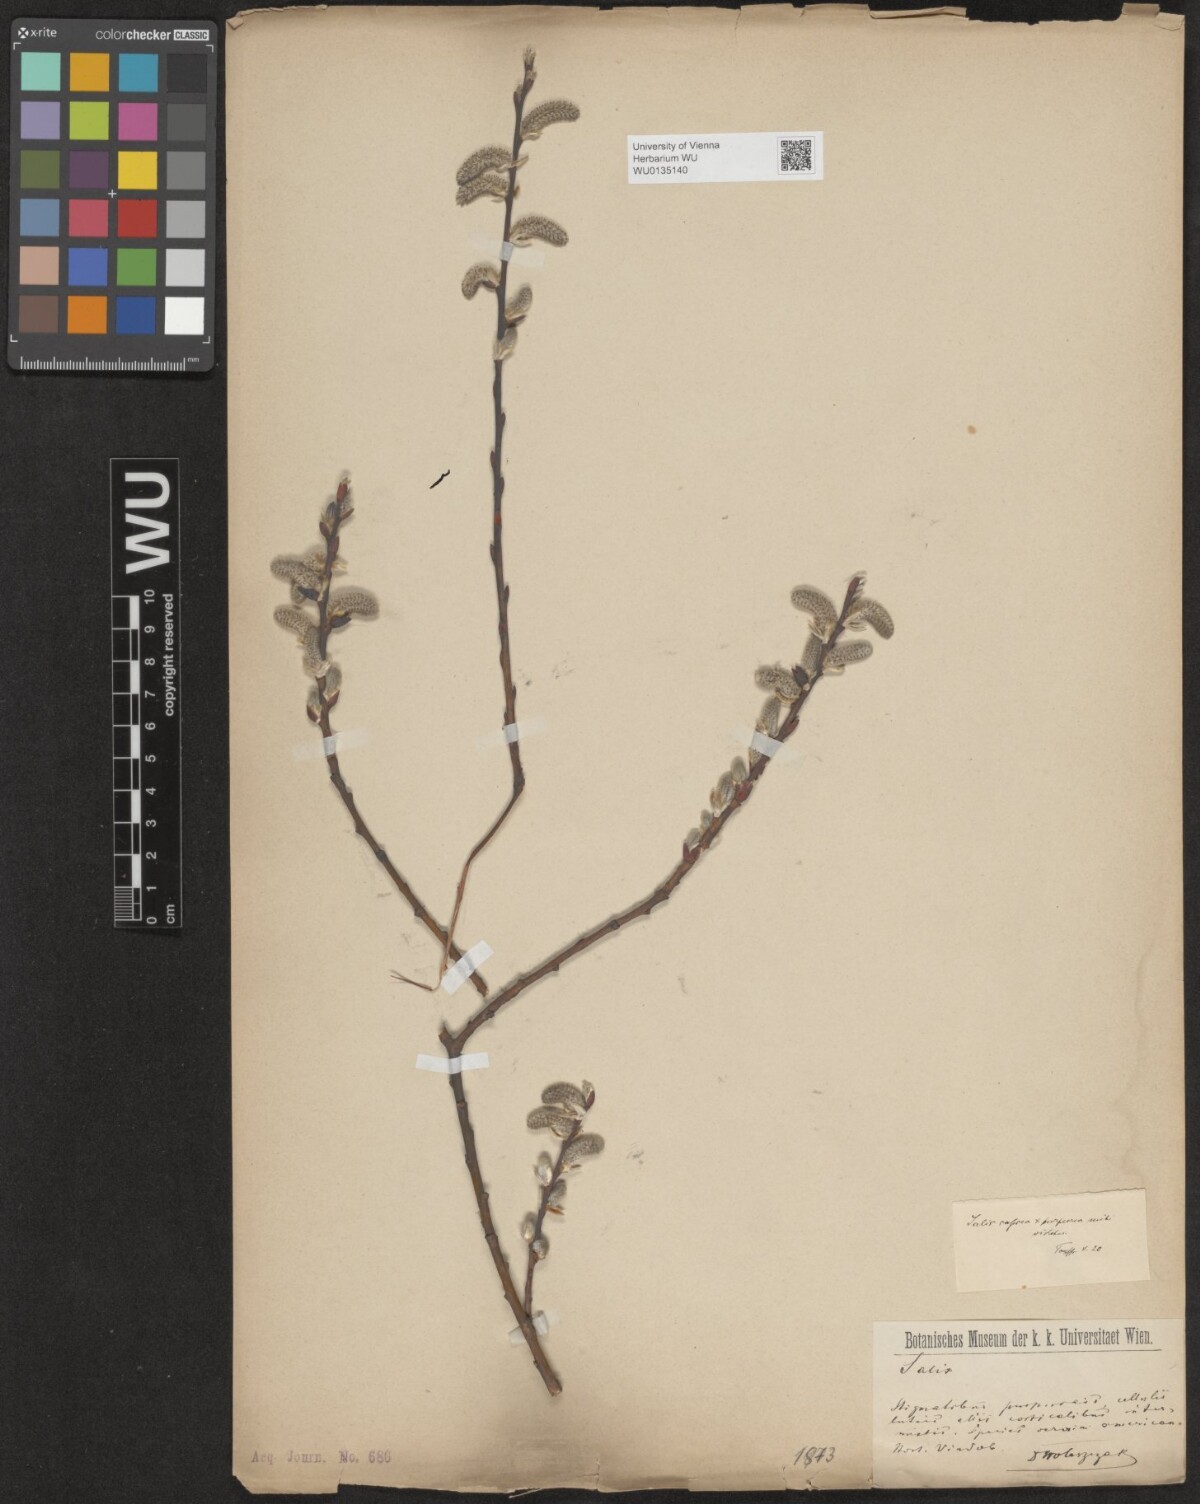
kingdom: Plantae
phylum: Tracheophyta
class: Magnoliopsida
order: Malpighiales
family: Salicaceae
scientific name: Salicaceae
